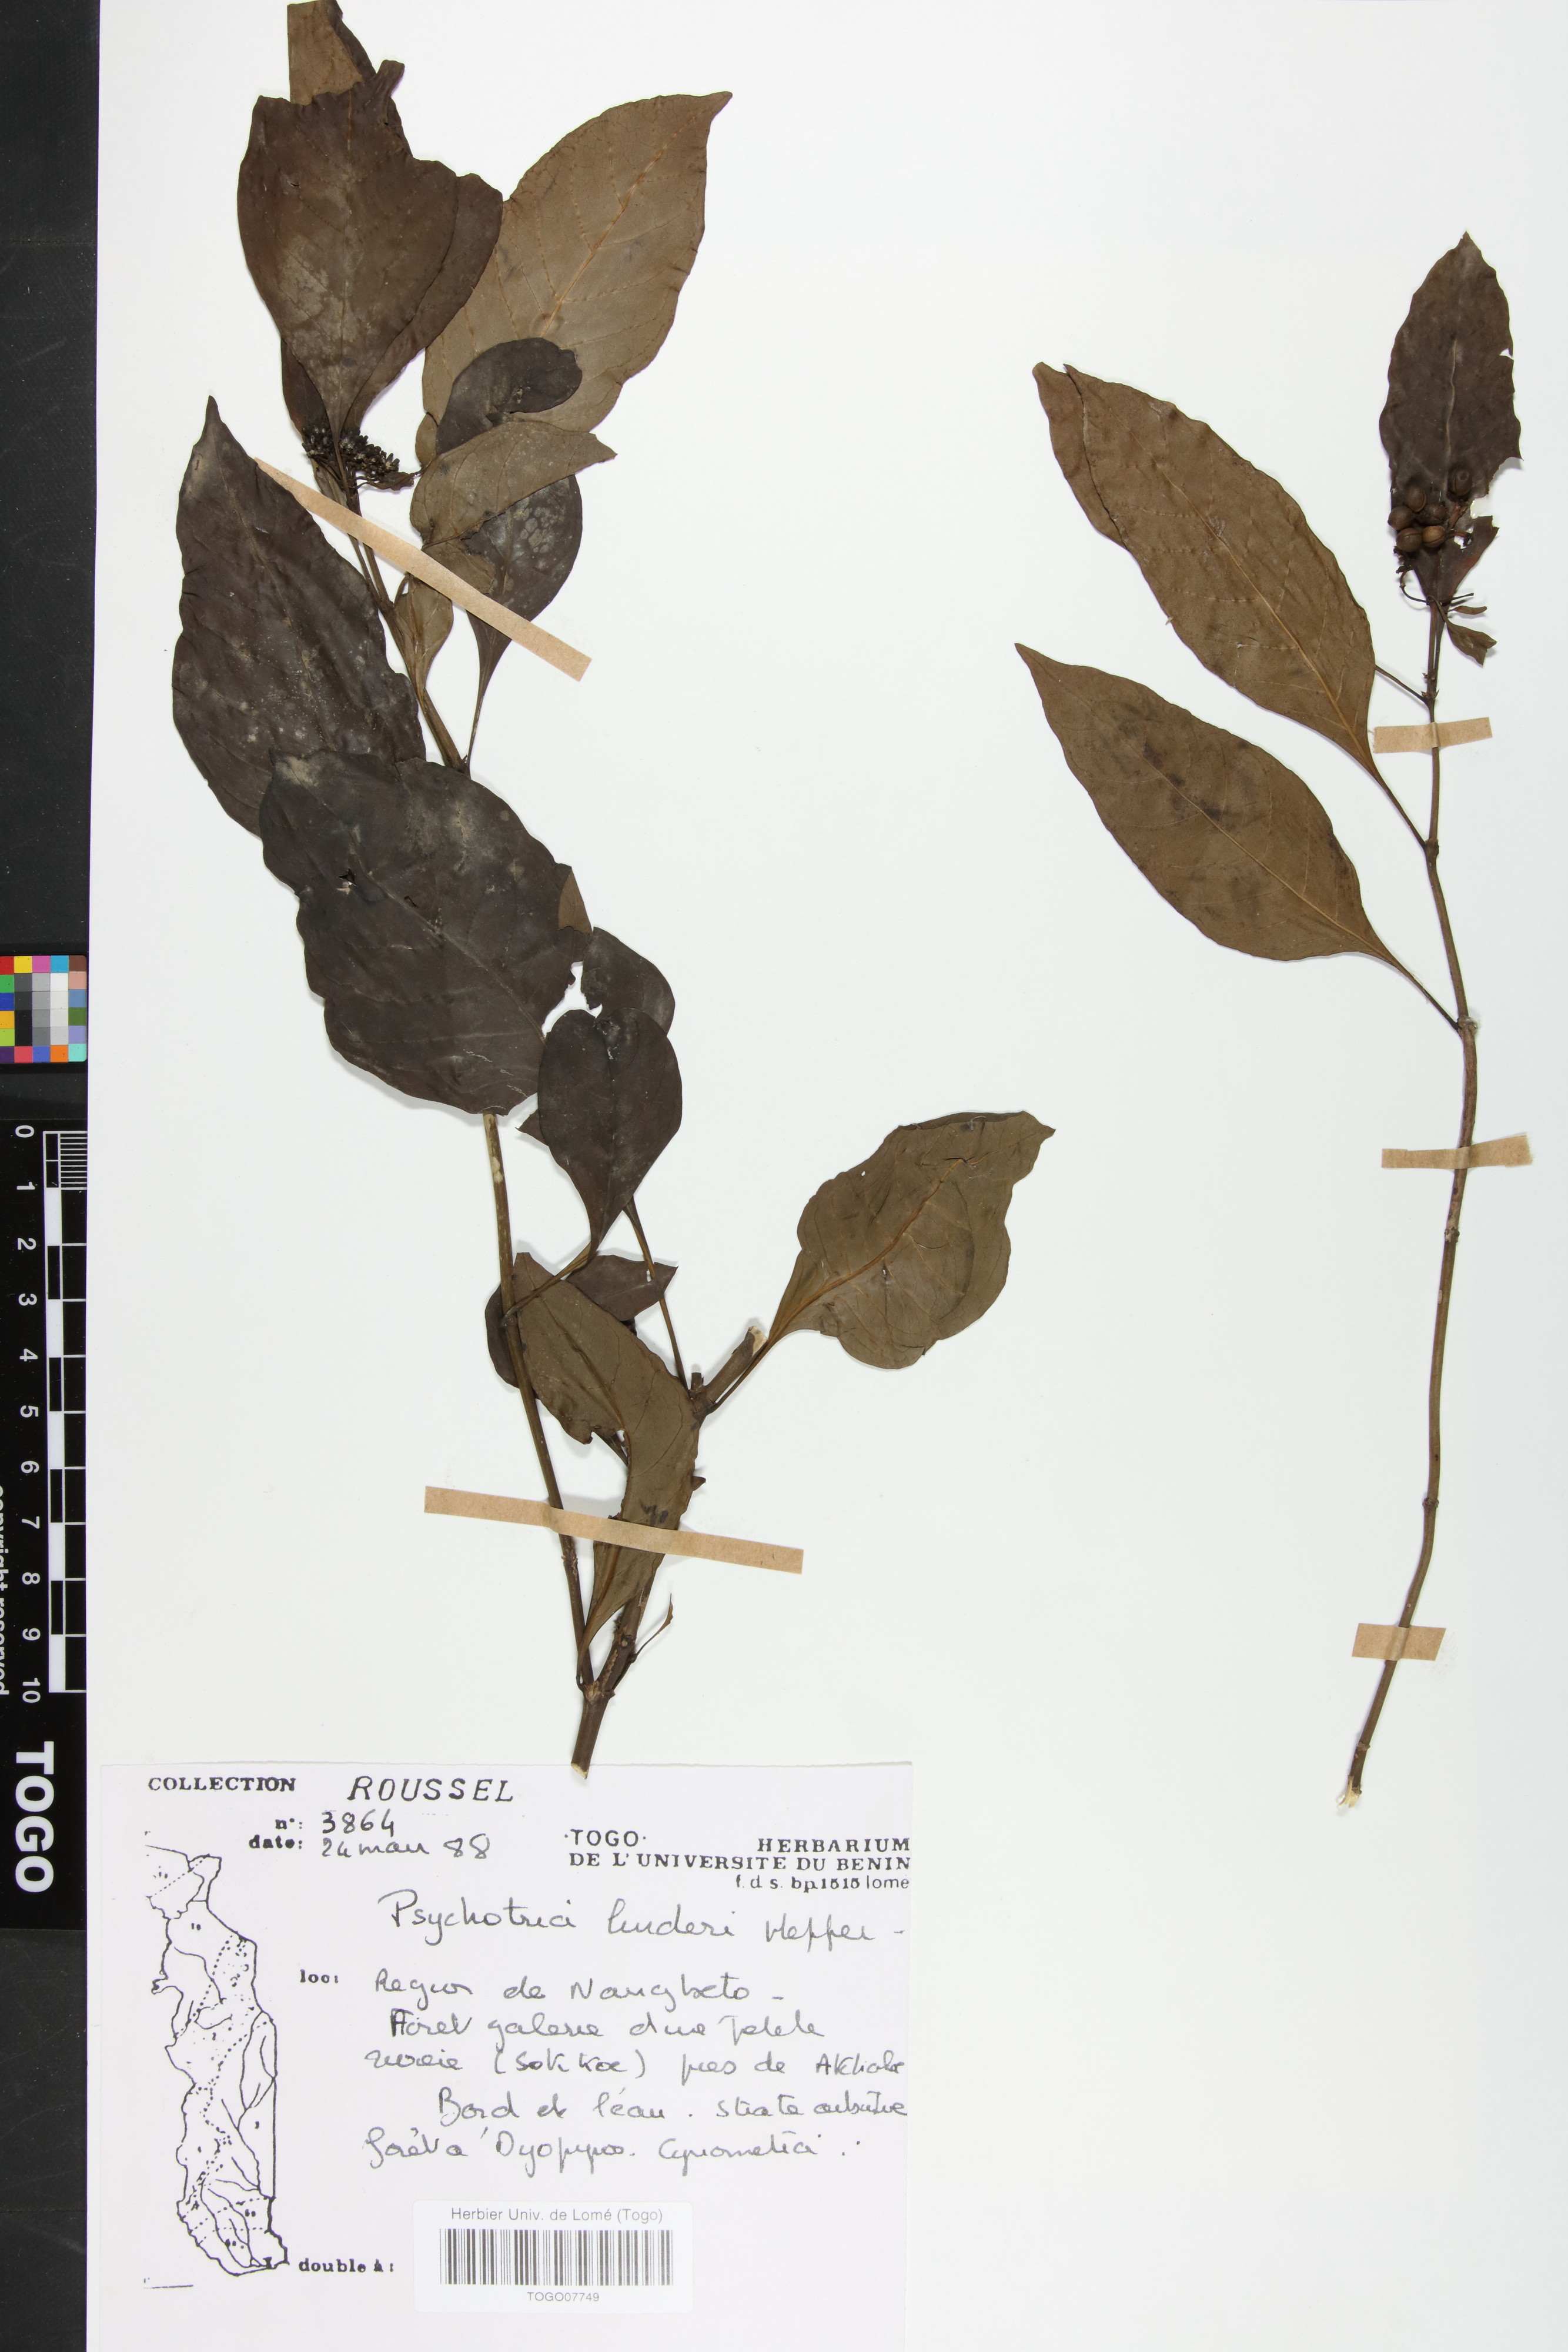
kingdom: Plantae
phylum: Tracheophyta
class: Magnoliopsida
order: Gentianales
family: Rubiaceae
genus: Psychotria
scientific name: Psychotria linderi
